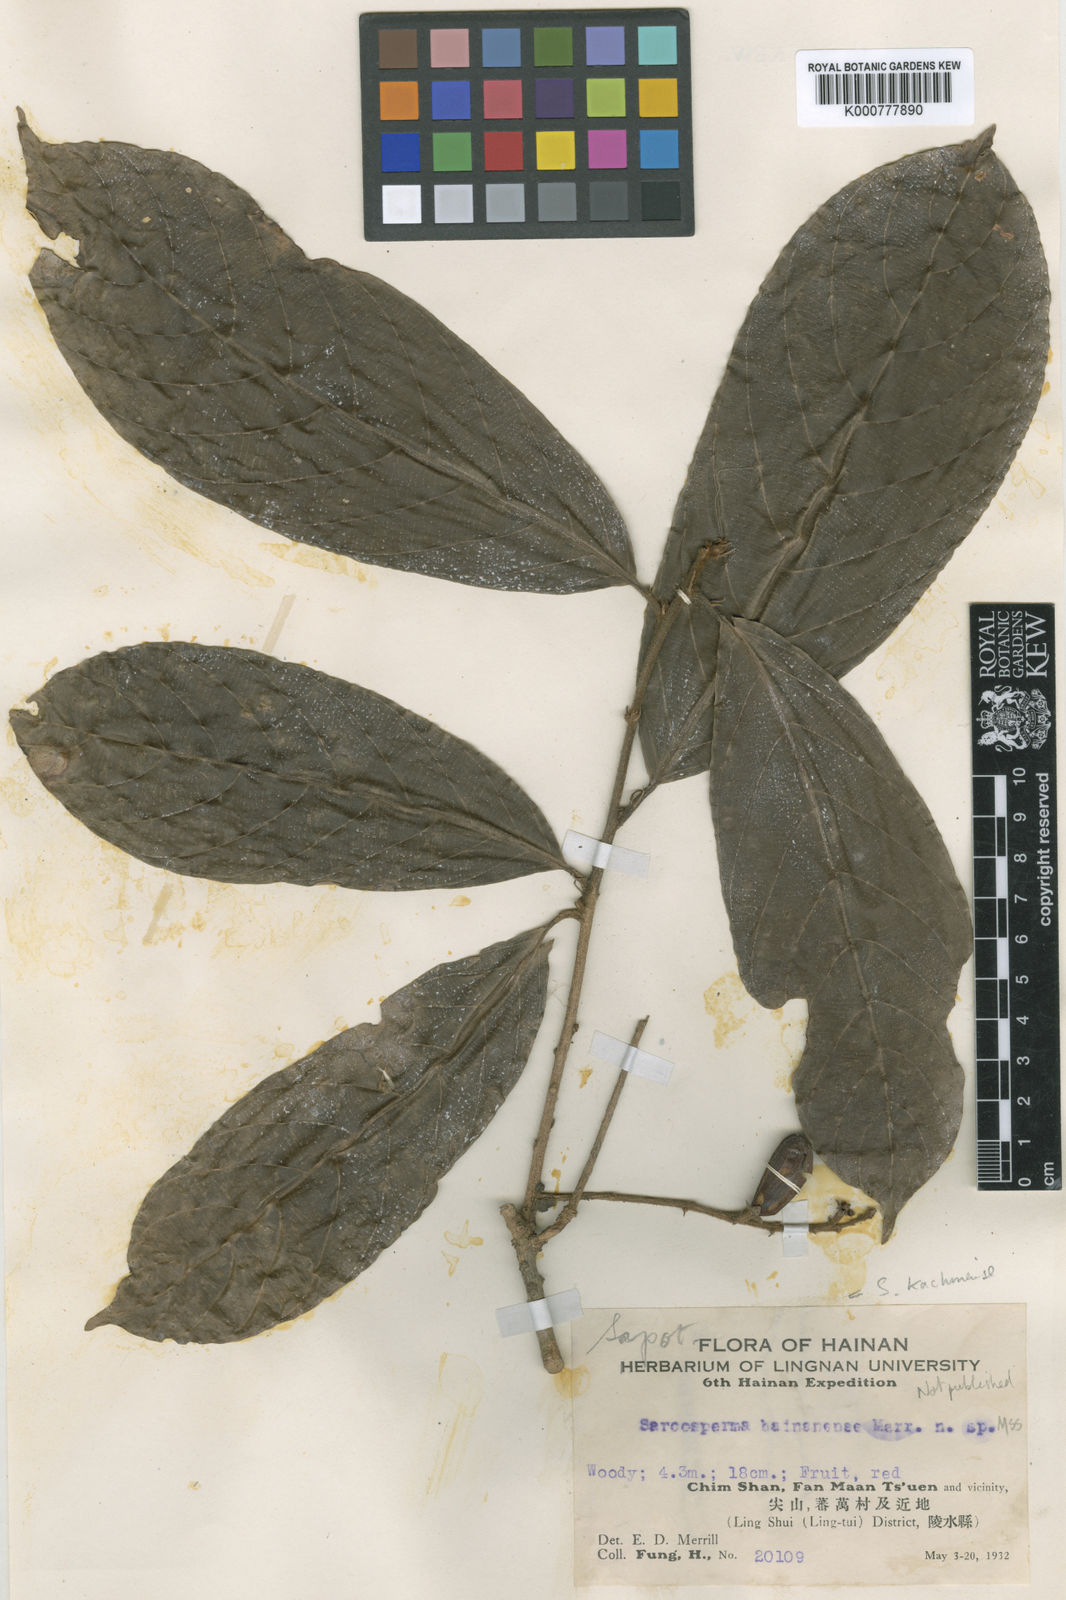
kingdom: Plantae
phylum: Tracheophyta
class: Magnoliopsida
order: Ericales
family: Sapotaceae
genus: Sarcosperma
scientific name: Sarcosperma
